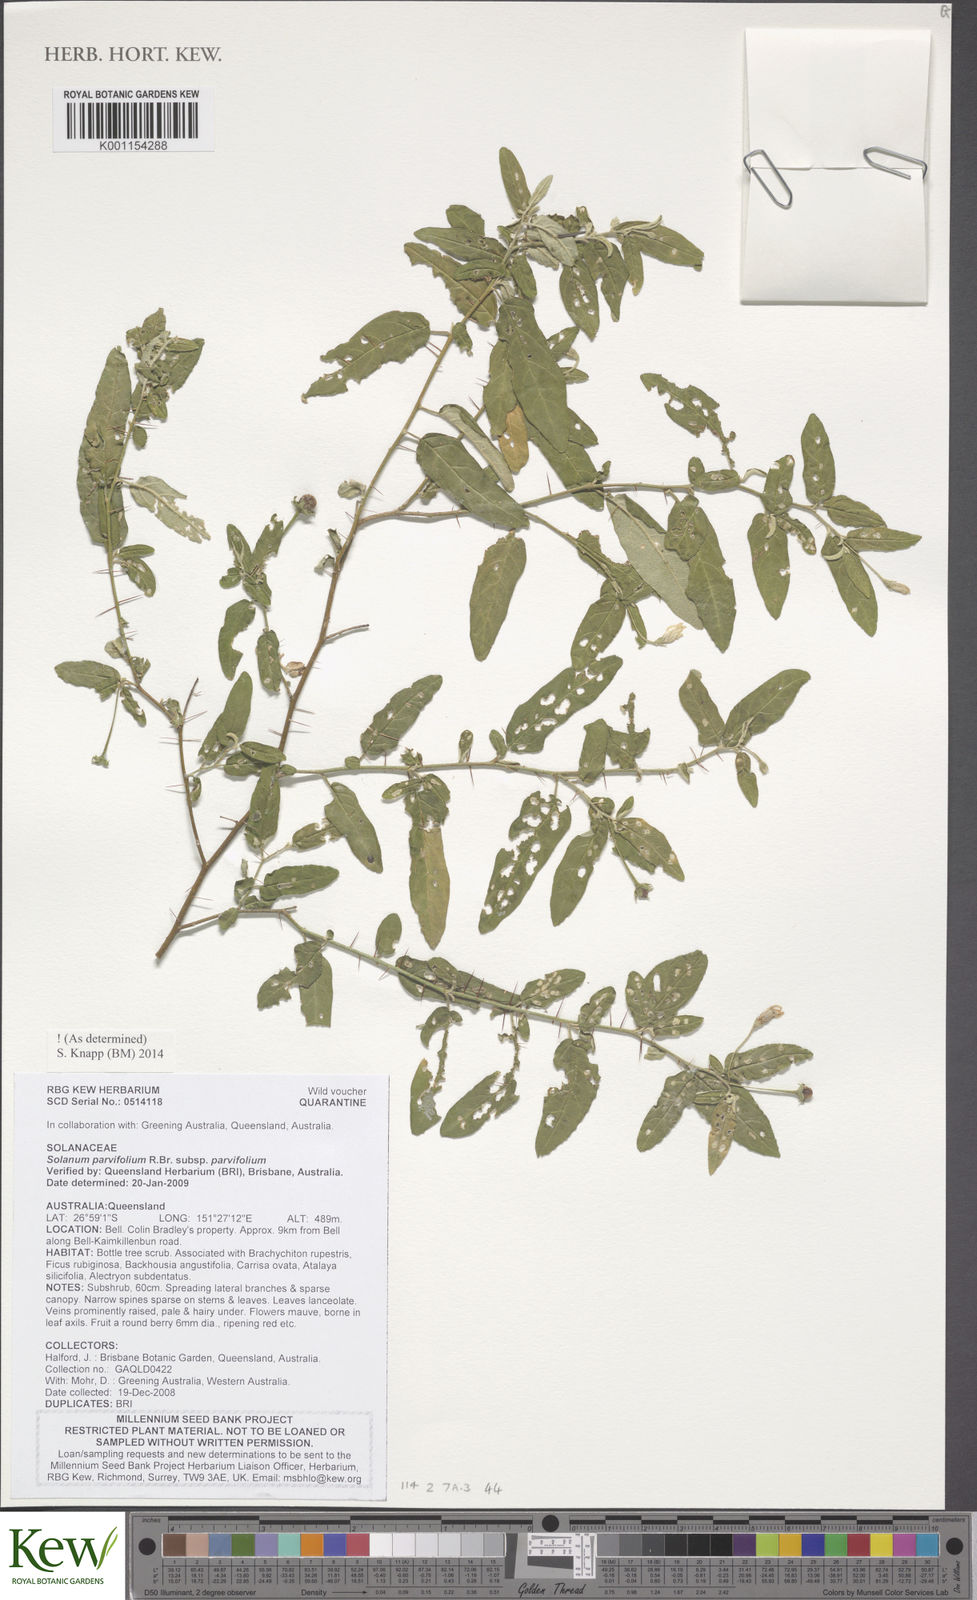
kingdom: Plantae
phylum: Tracheophyta
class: Magnoliopsida
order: Solanales
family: Solanaceae
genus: Solanum
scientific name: Solanum parvifolium
